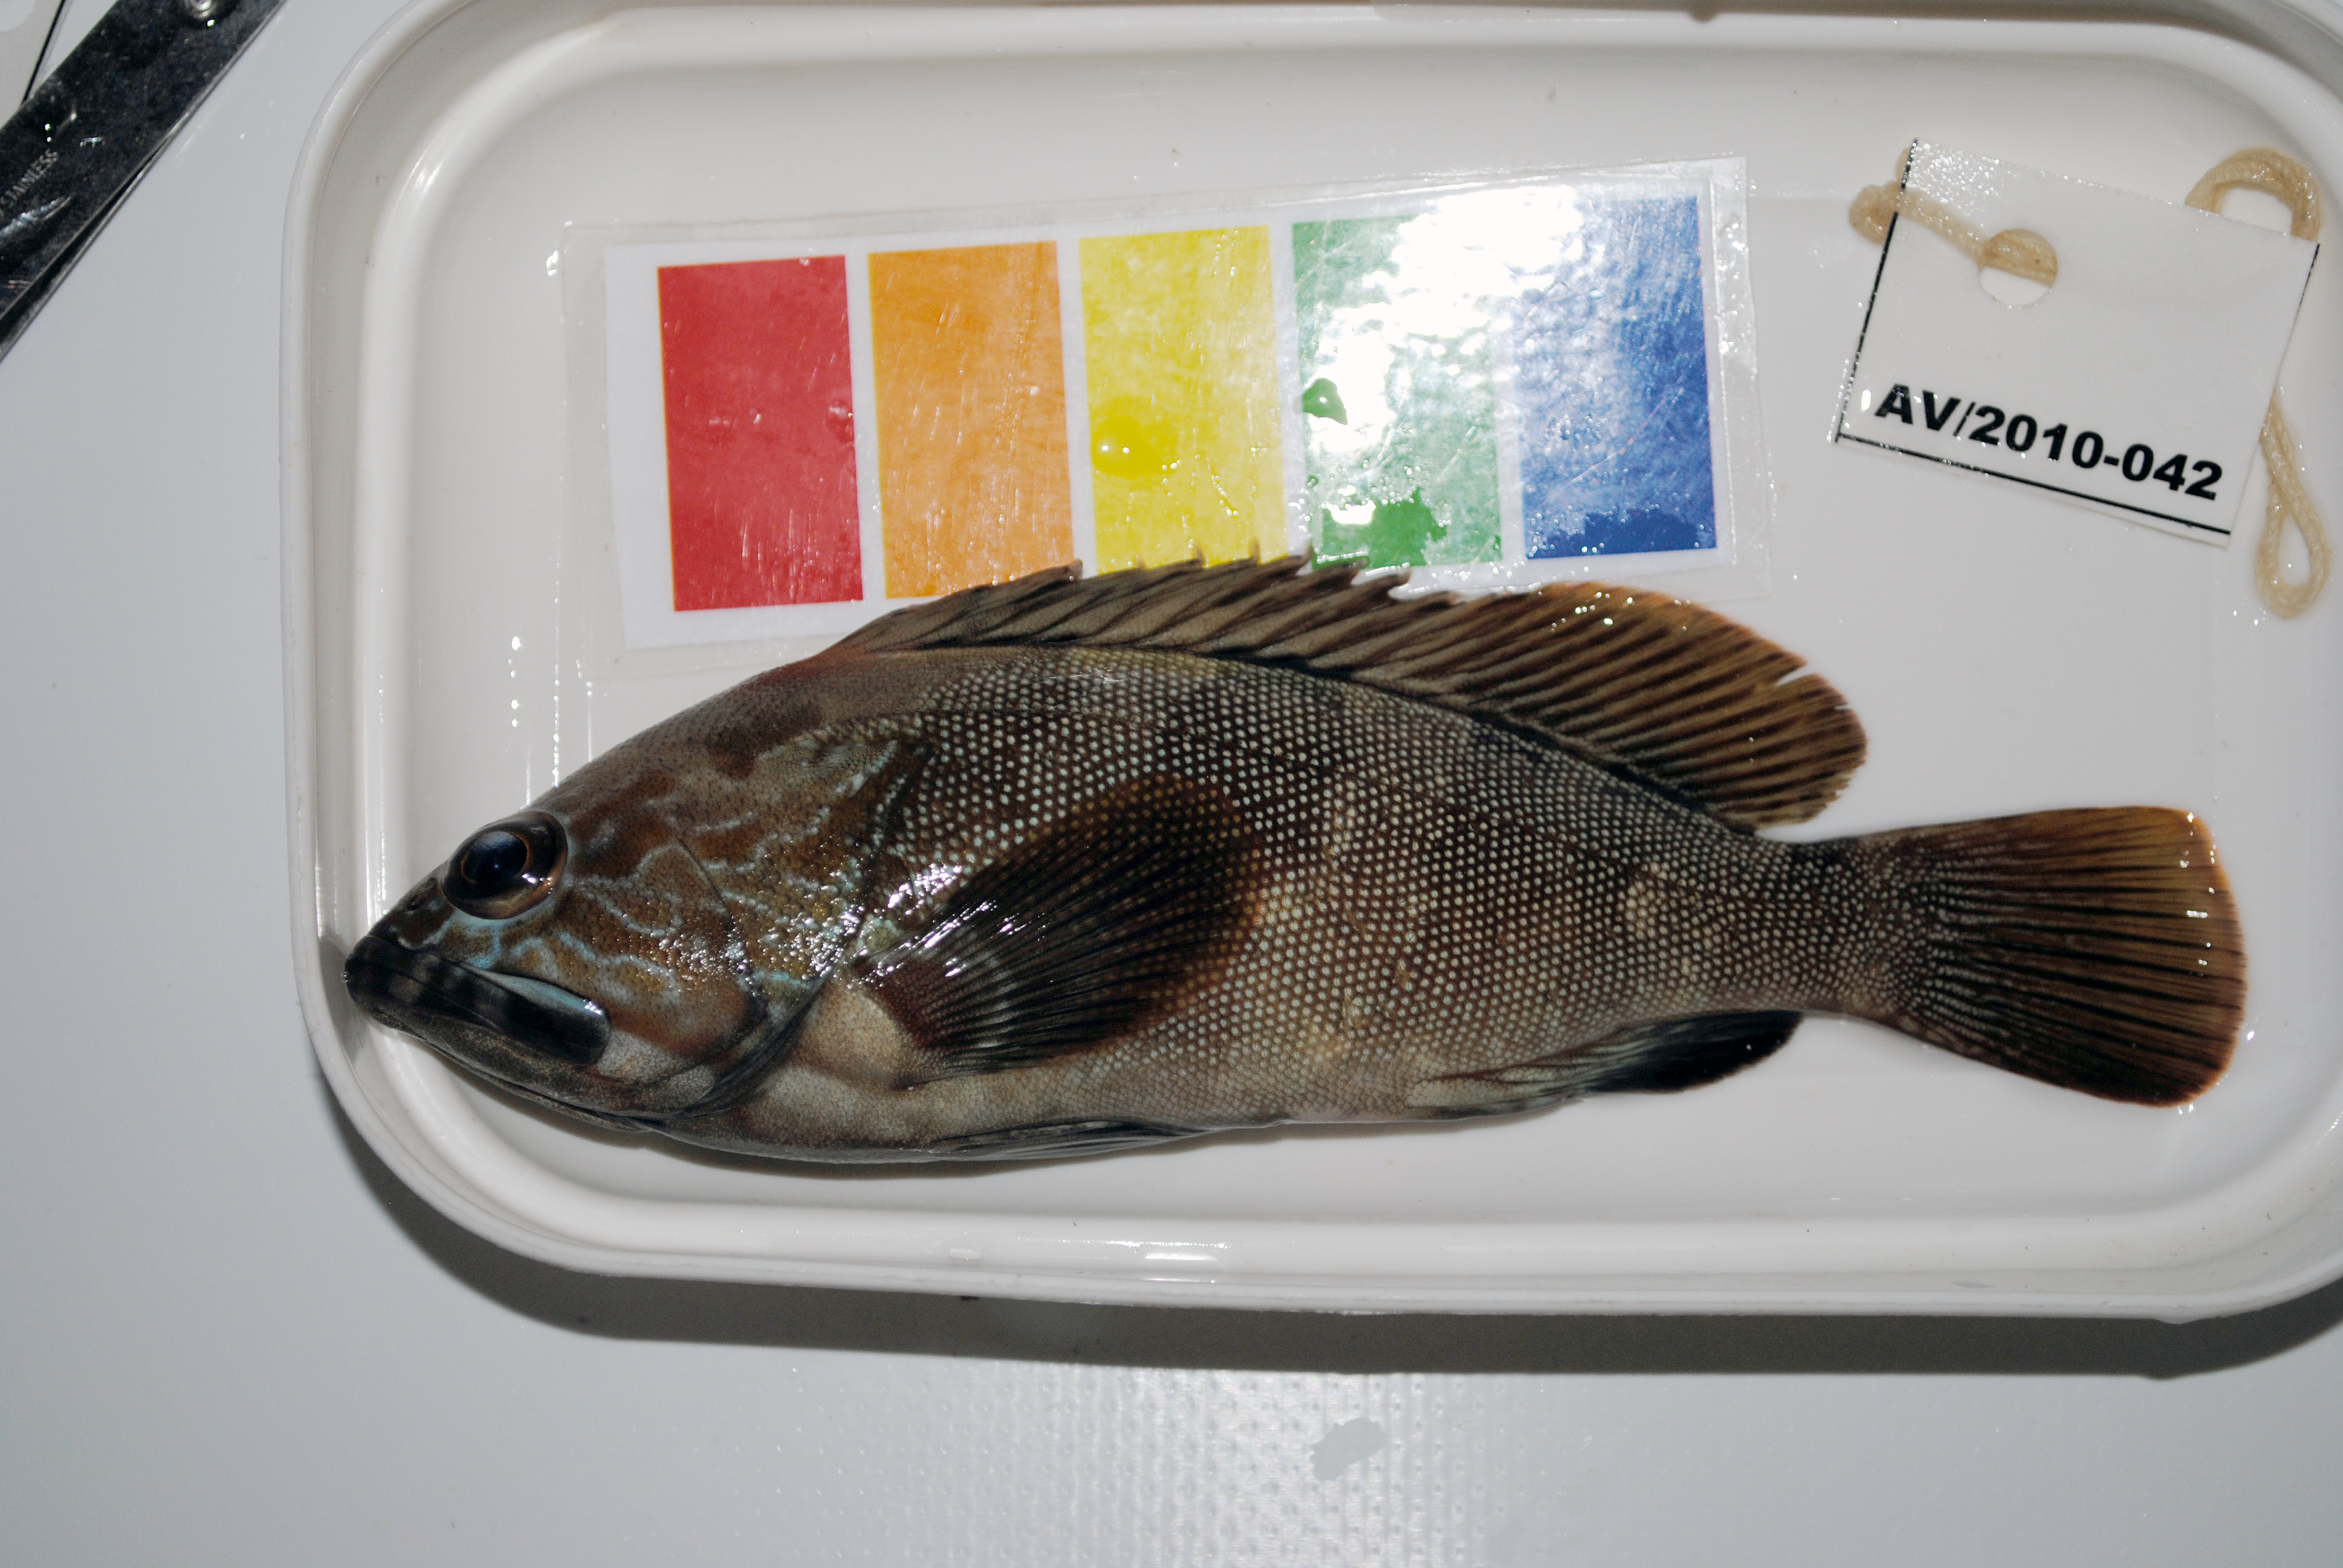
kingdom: Animalia
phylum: Chordata
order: Perciformes
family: Serranidae
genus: Epinephelus
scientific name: Epinephelus rivulatus
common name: Halfmoon grouper
